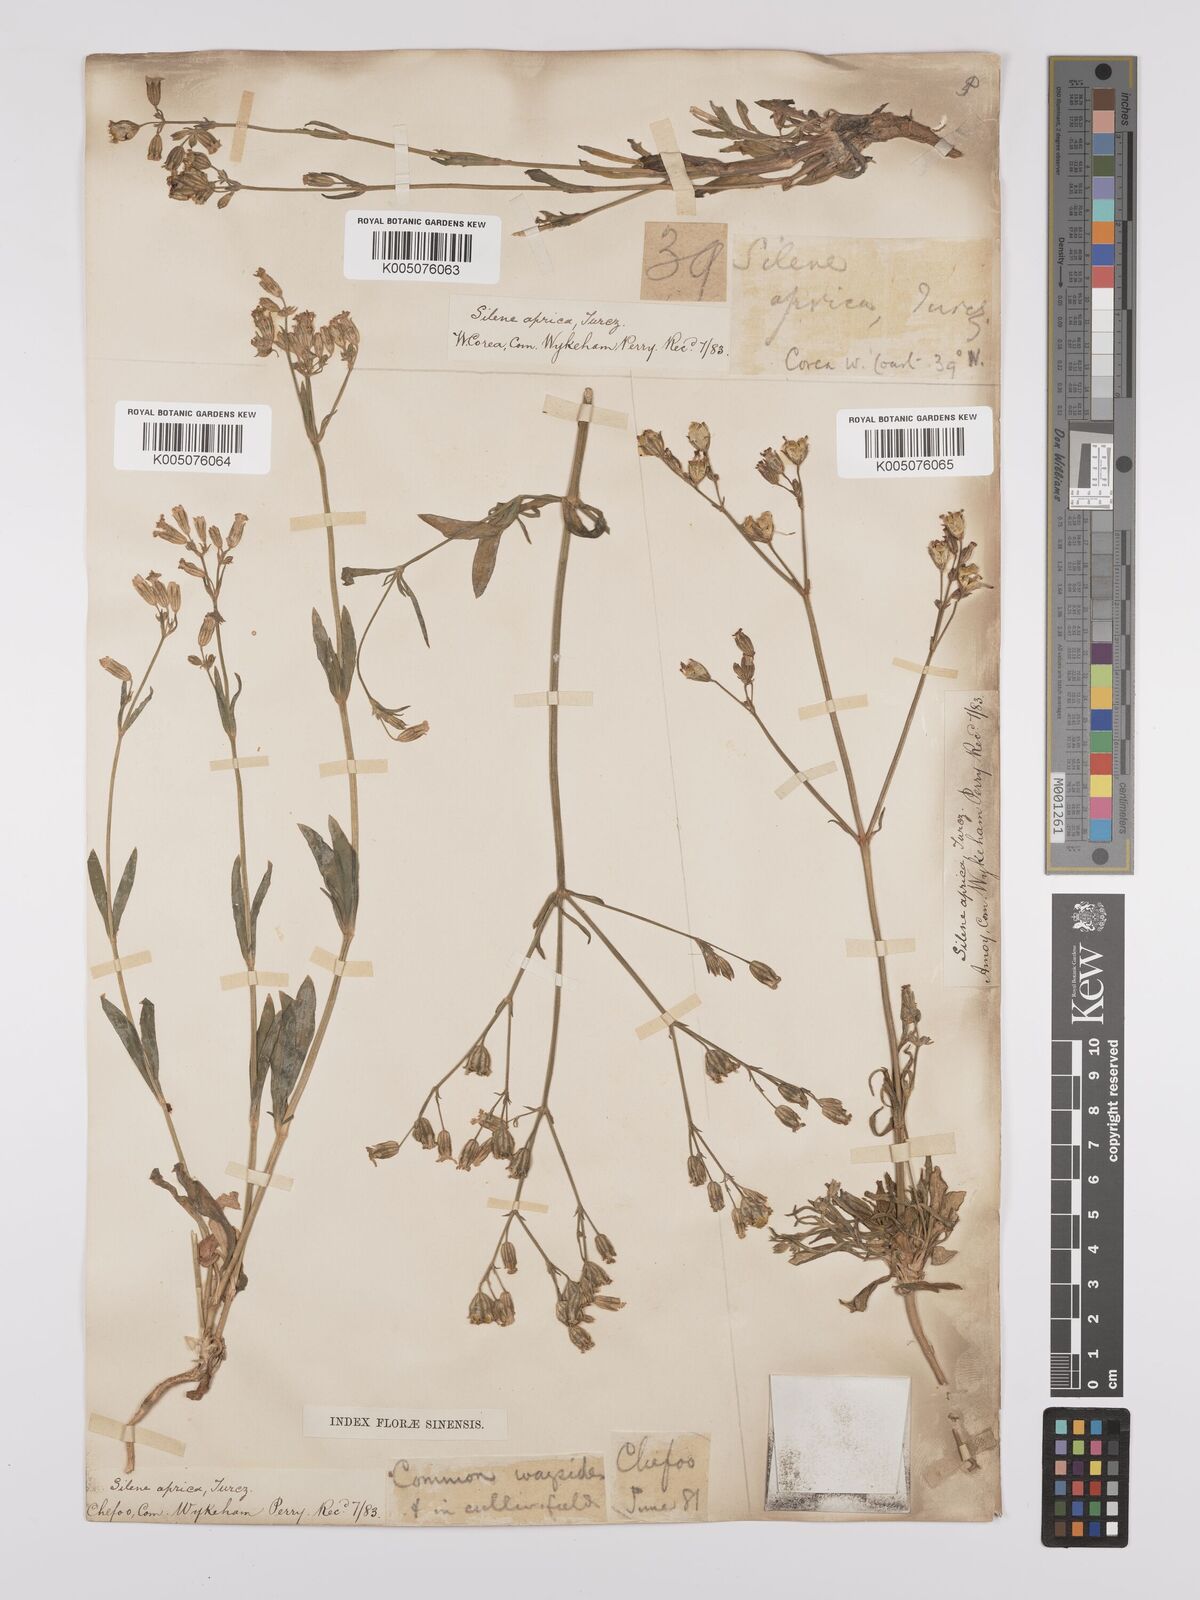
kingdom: Plantae
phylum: Tracheophyta
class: Magnoliopsida
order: Caryophyllales
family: Caryophyllaceae
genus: Silene
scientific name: Silene aprica
